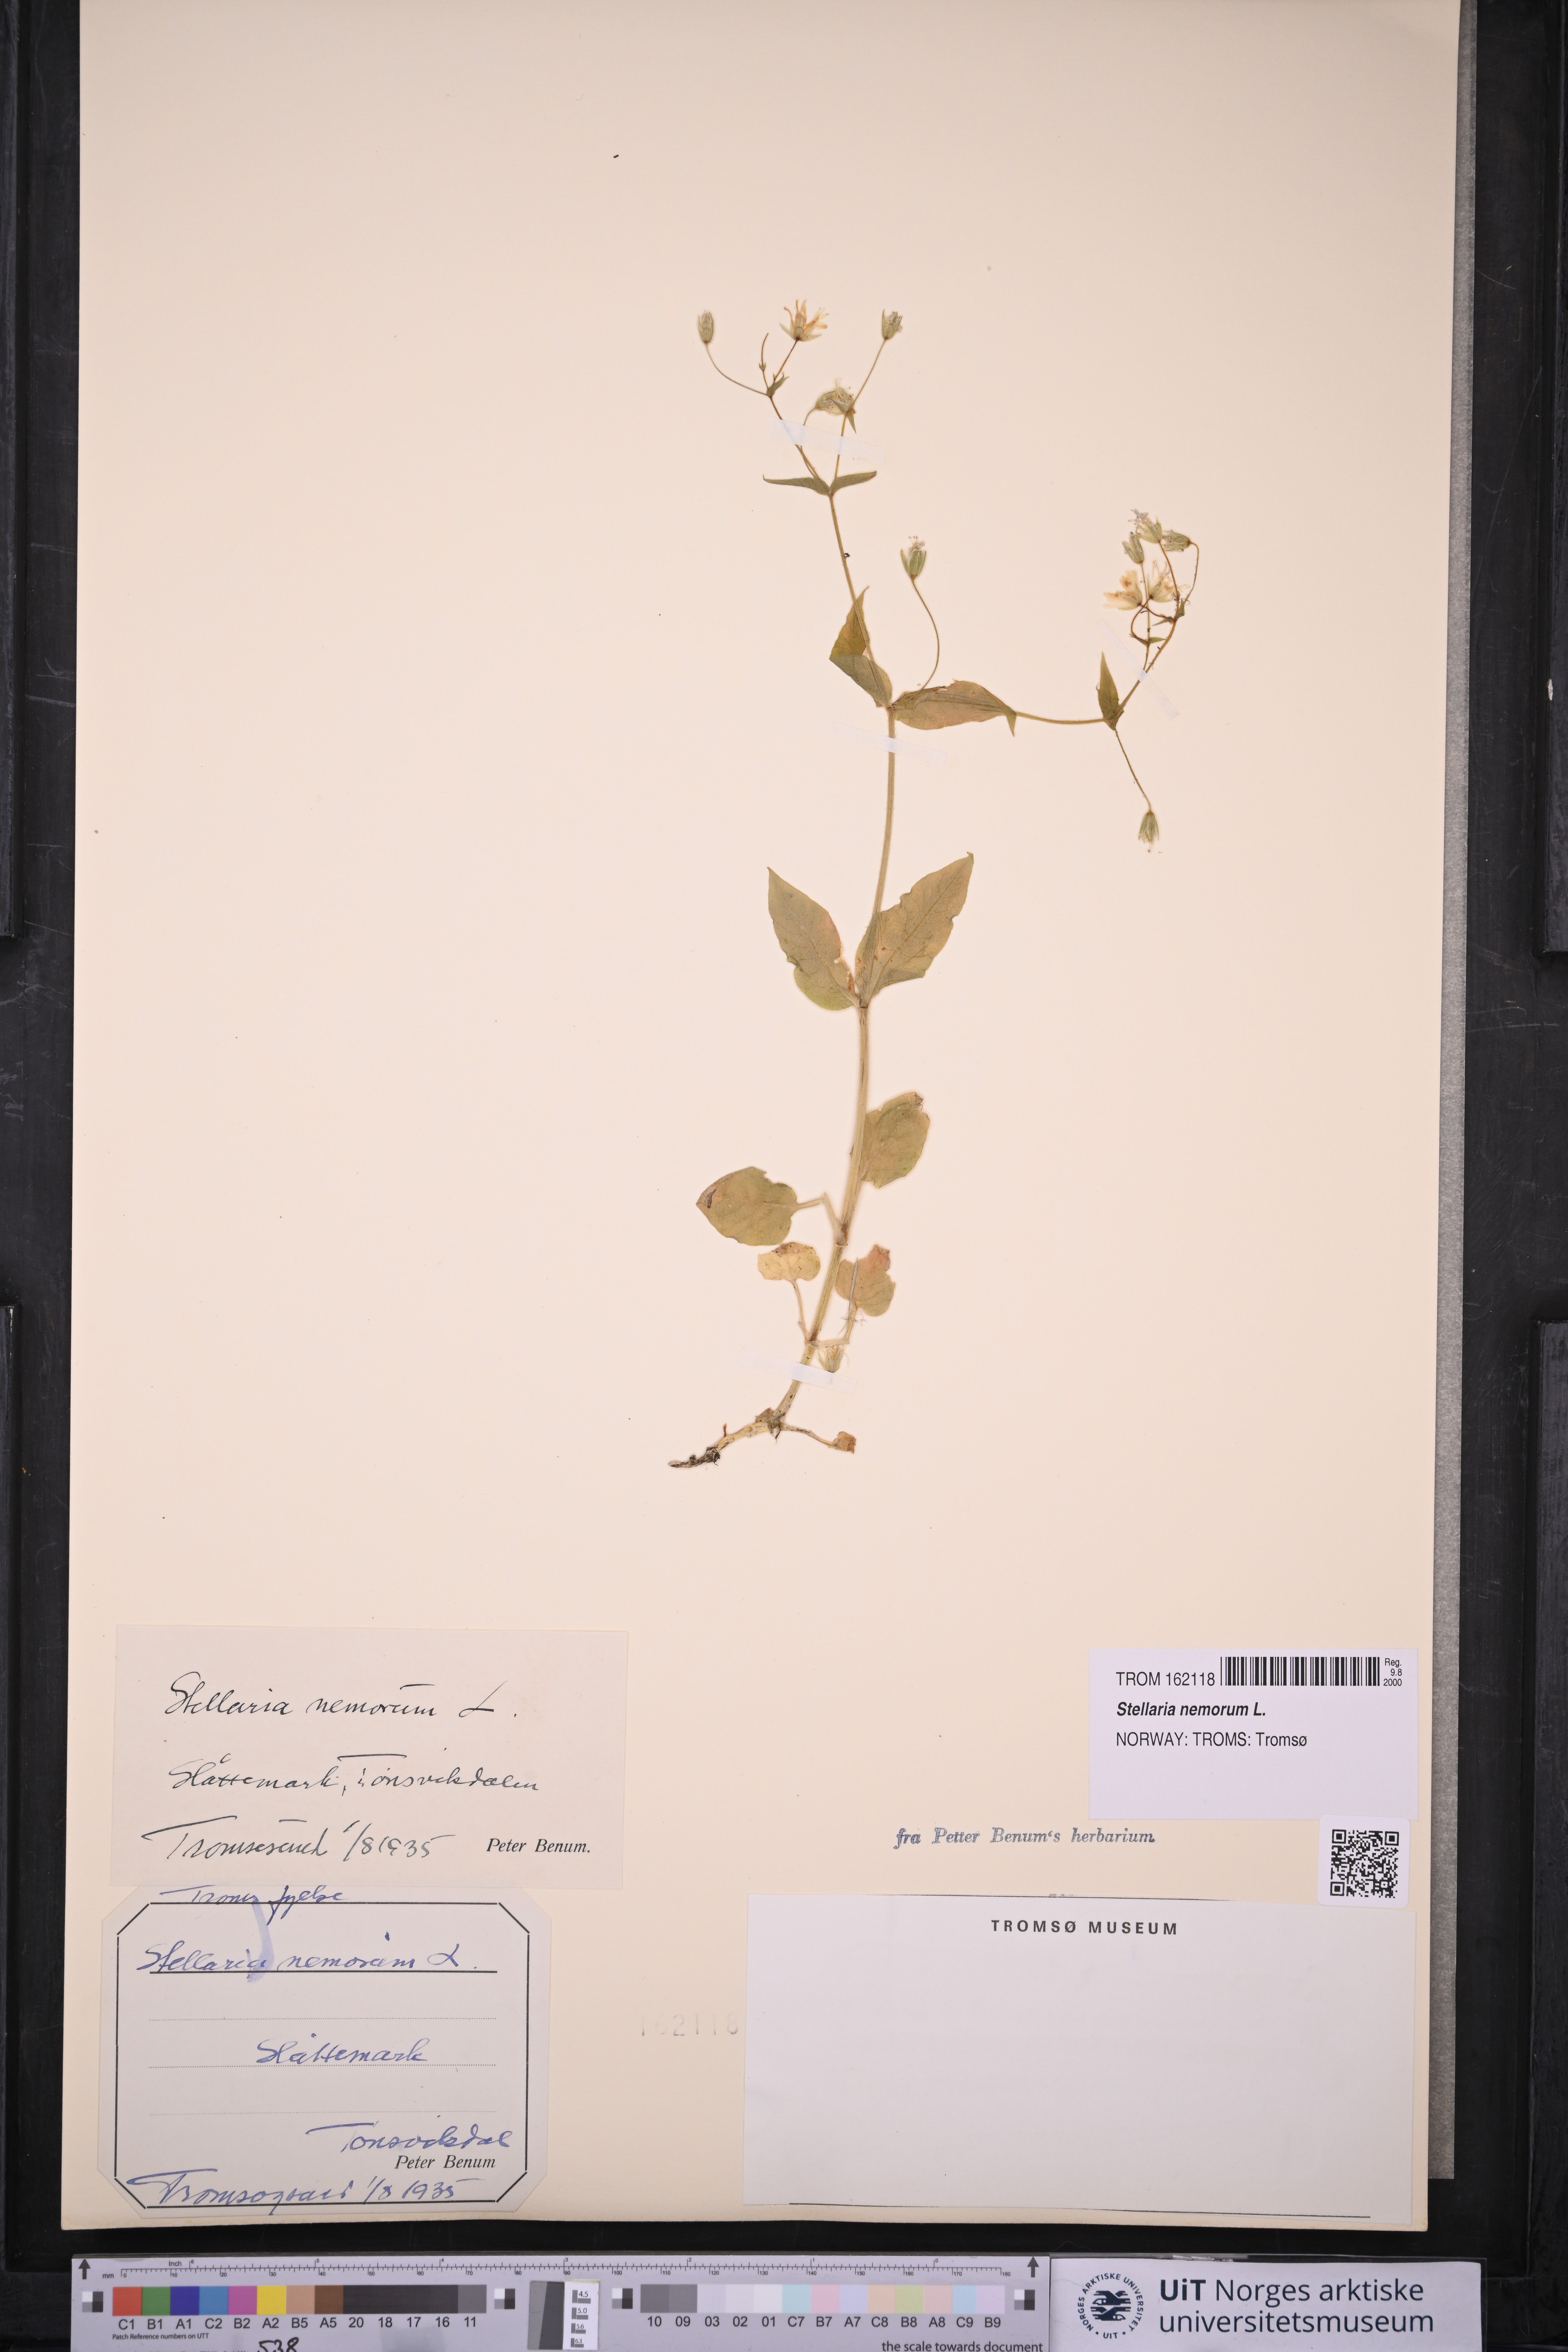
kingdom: Plantae
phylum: Tracheophyta
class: Magnoliopsida
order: Caryophyllales
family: Caryophyllaceae
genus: Stellaria
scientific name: Stellaria nemorum
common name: Wood stitchwort
